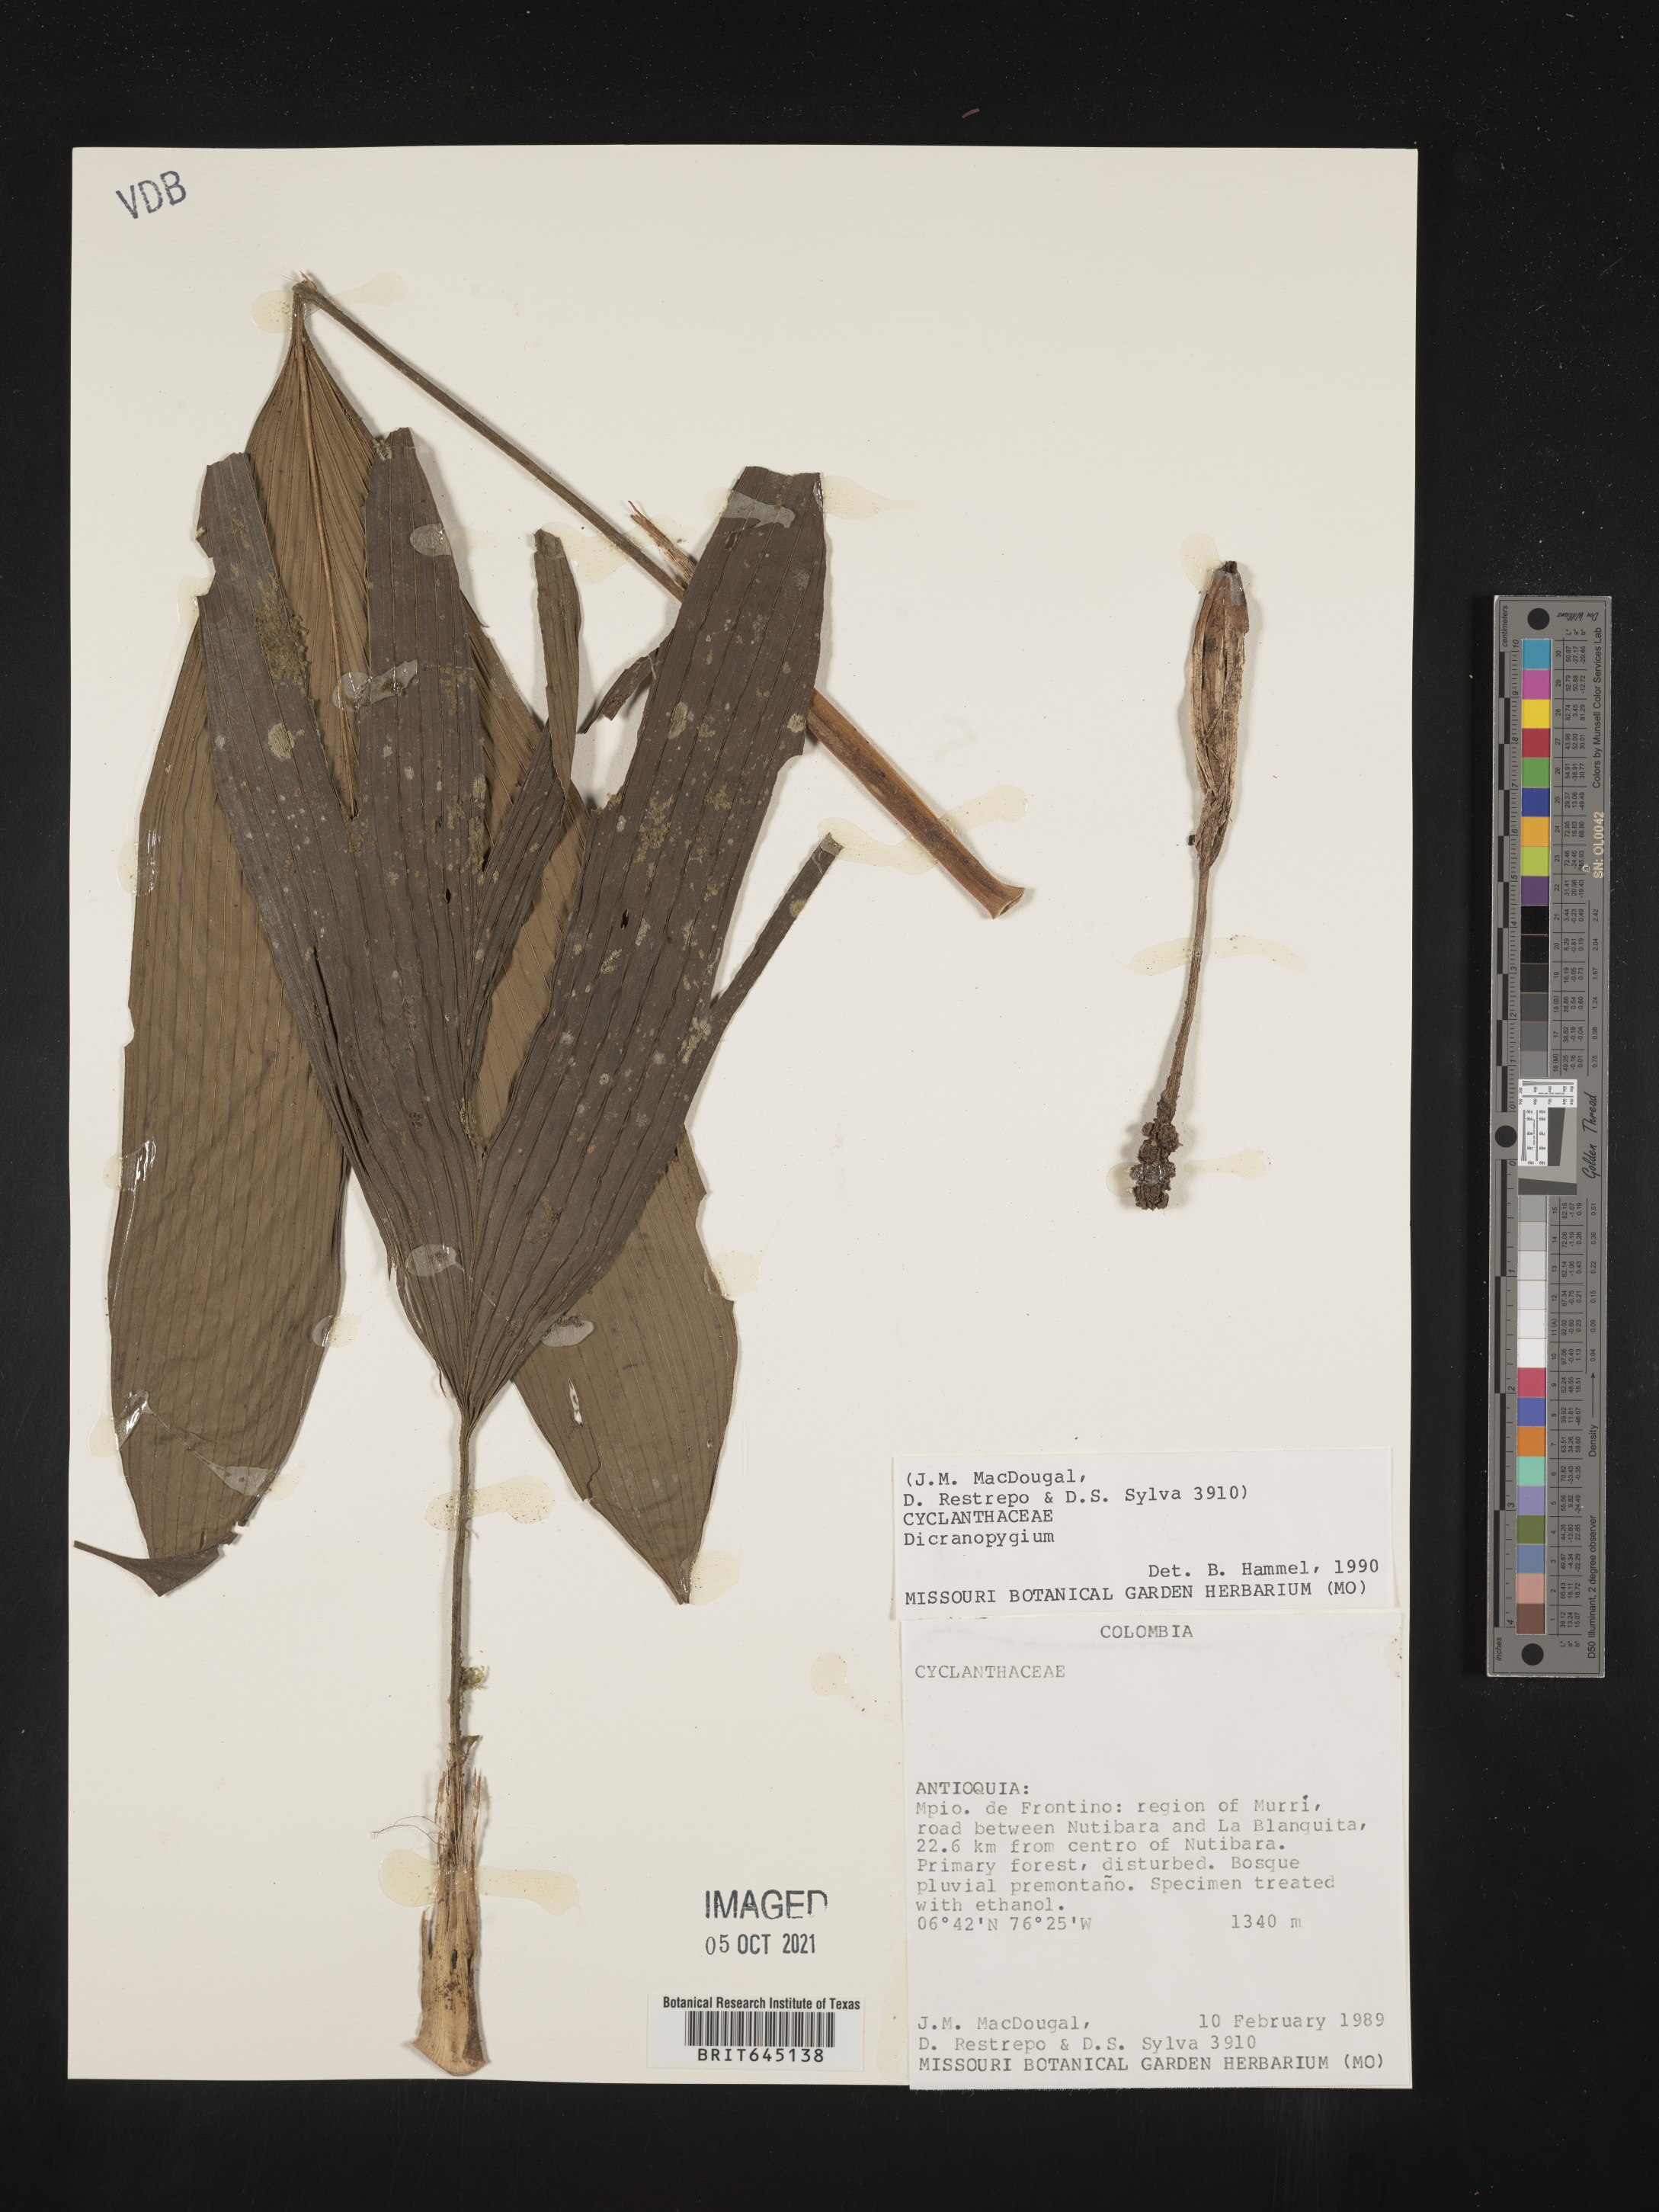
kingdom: Plantae
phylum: Tracheophyta
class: Liliopsida
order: Pandanales
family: Cyclanthaceae
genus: Dicranopygium
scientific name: Dicranopygium
